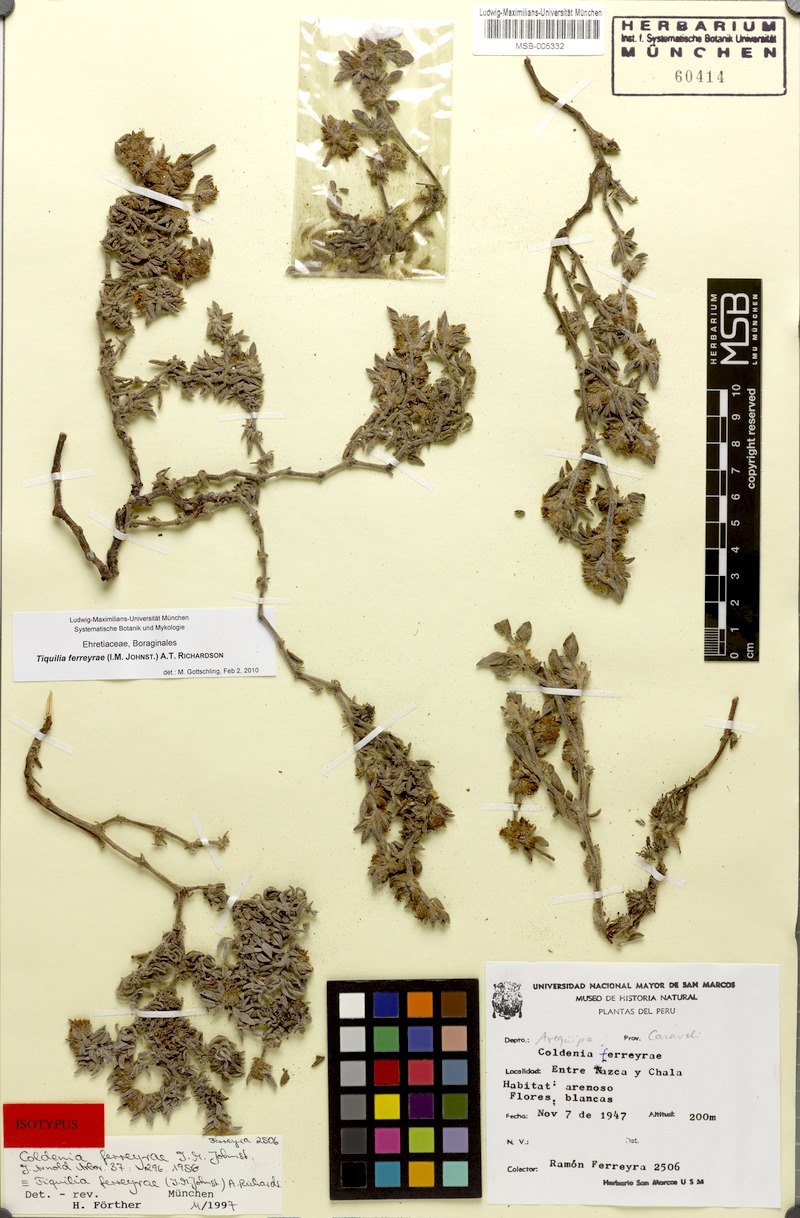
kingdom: Plantae
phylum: Tracheophyta
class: Magnoliopsida
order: Boraginales
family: Ehretiaceae
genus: Tiquilia
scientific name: Tiquilia ferreyrae
